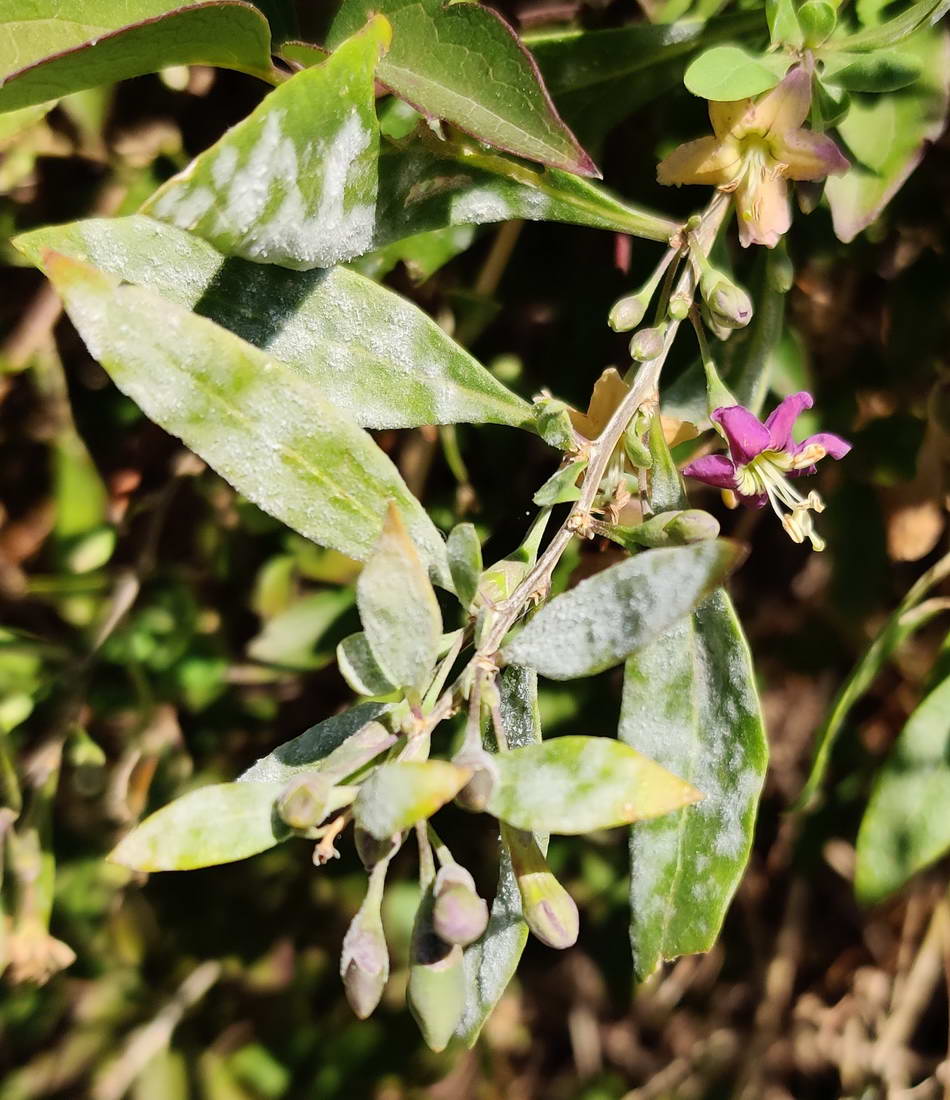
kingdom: Fungi
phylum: Ascomycota
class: Leotiomycetes
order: Helotiales
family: Erysiphaceae
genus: Erysiphe
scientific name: Erysiphe mougeotii
